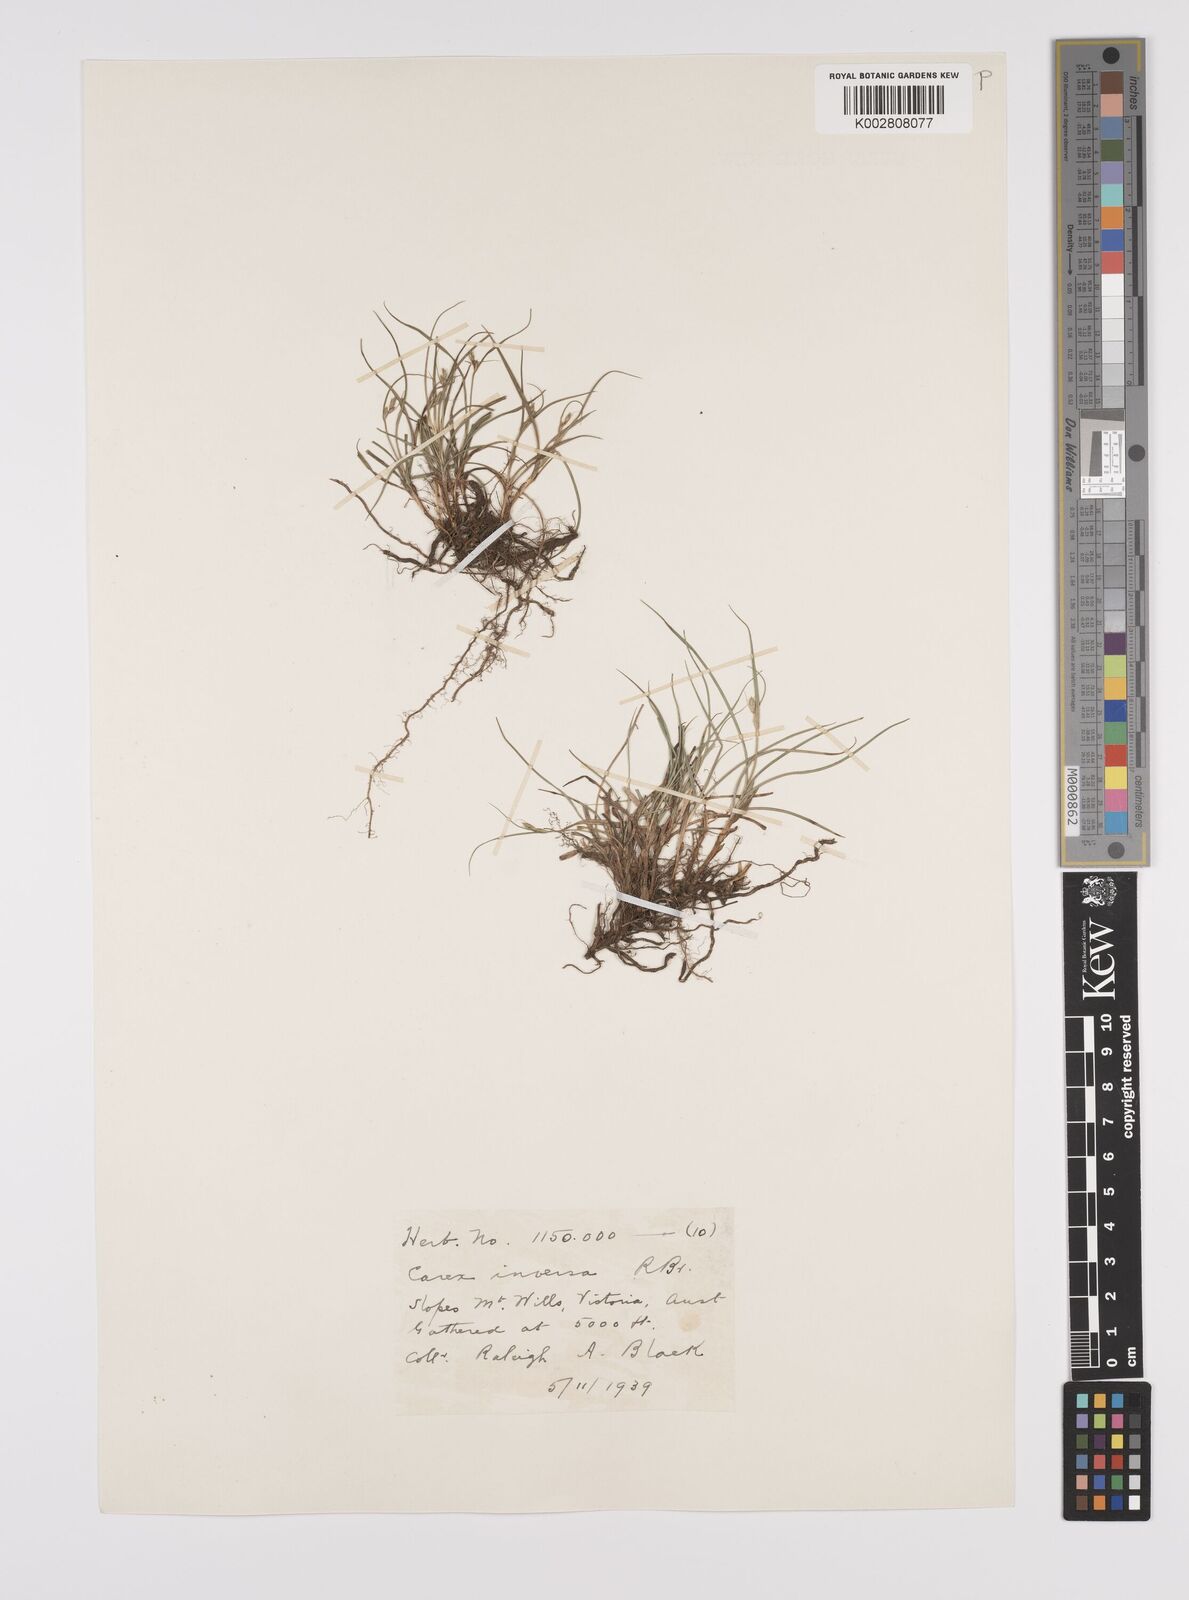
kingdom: Plantae
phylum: Tracheophyta
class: Liliopsida
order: Poales
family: Cyperaceae
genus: Carex
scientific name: Carex inversa
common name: Knob sedge
